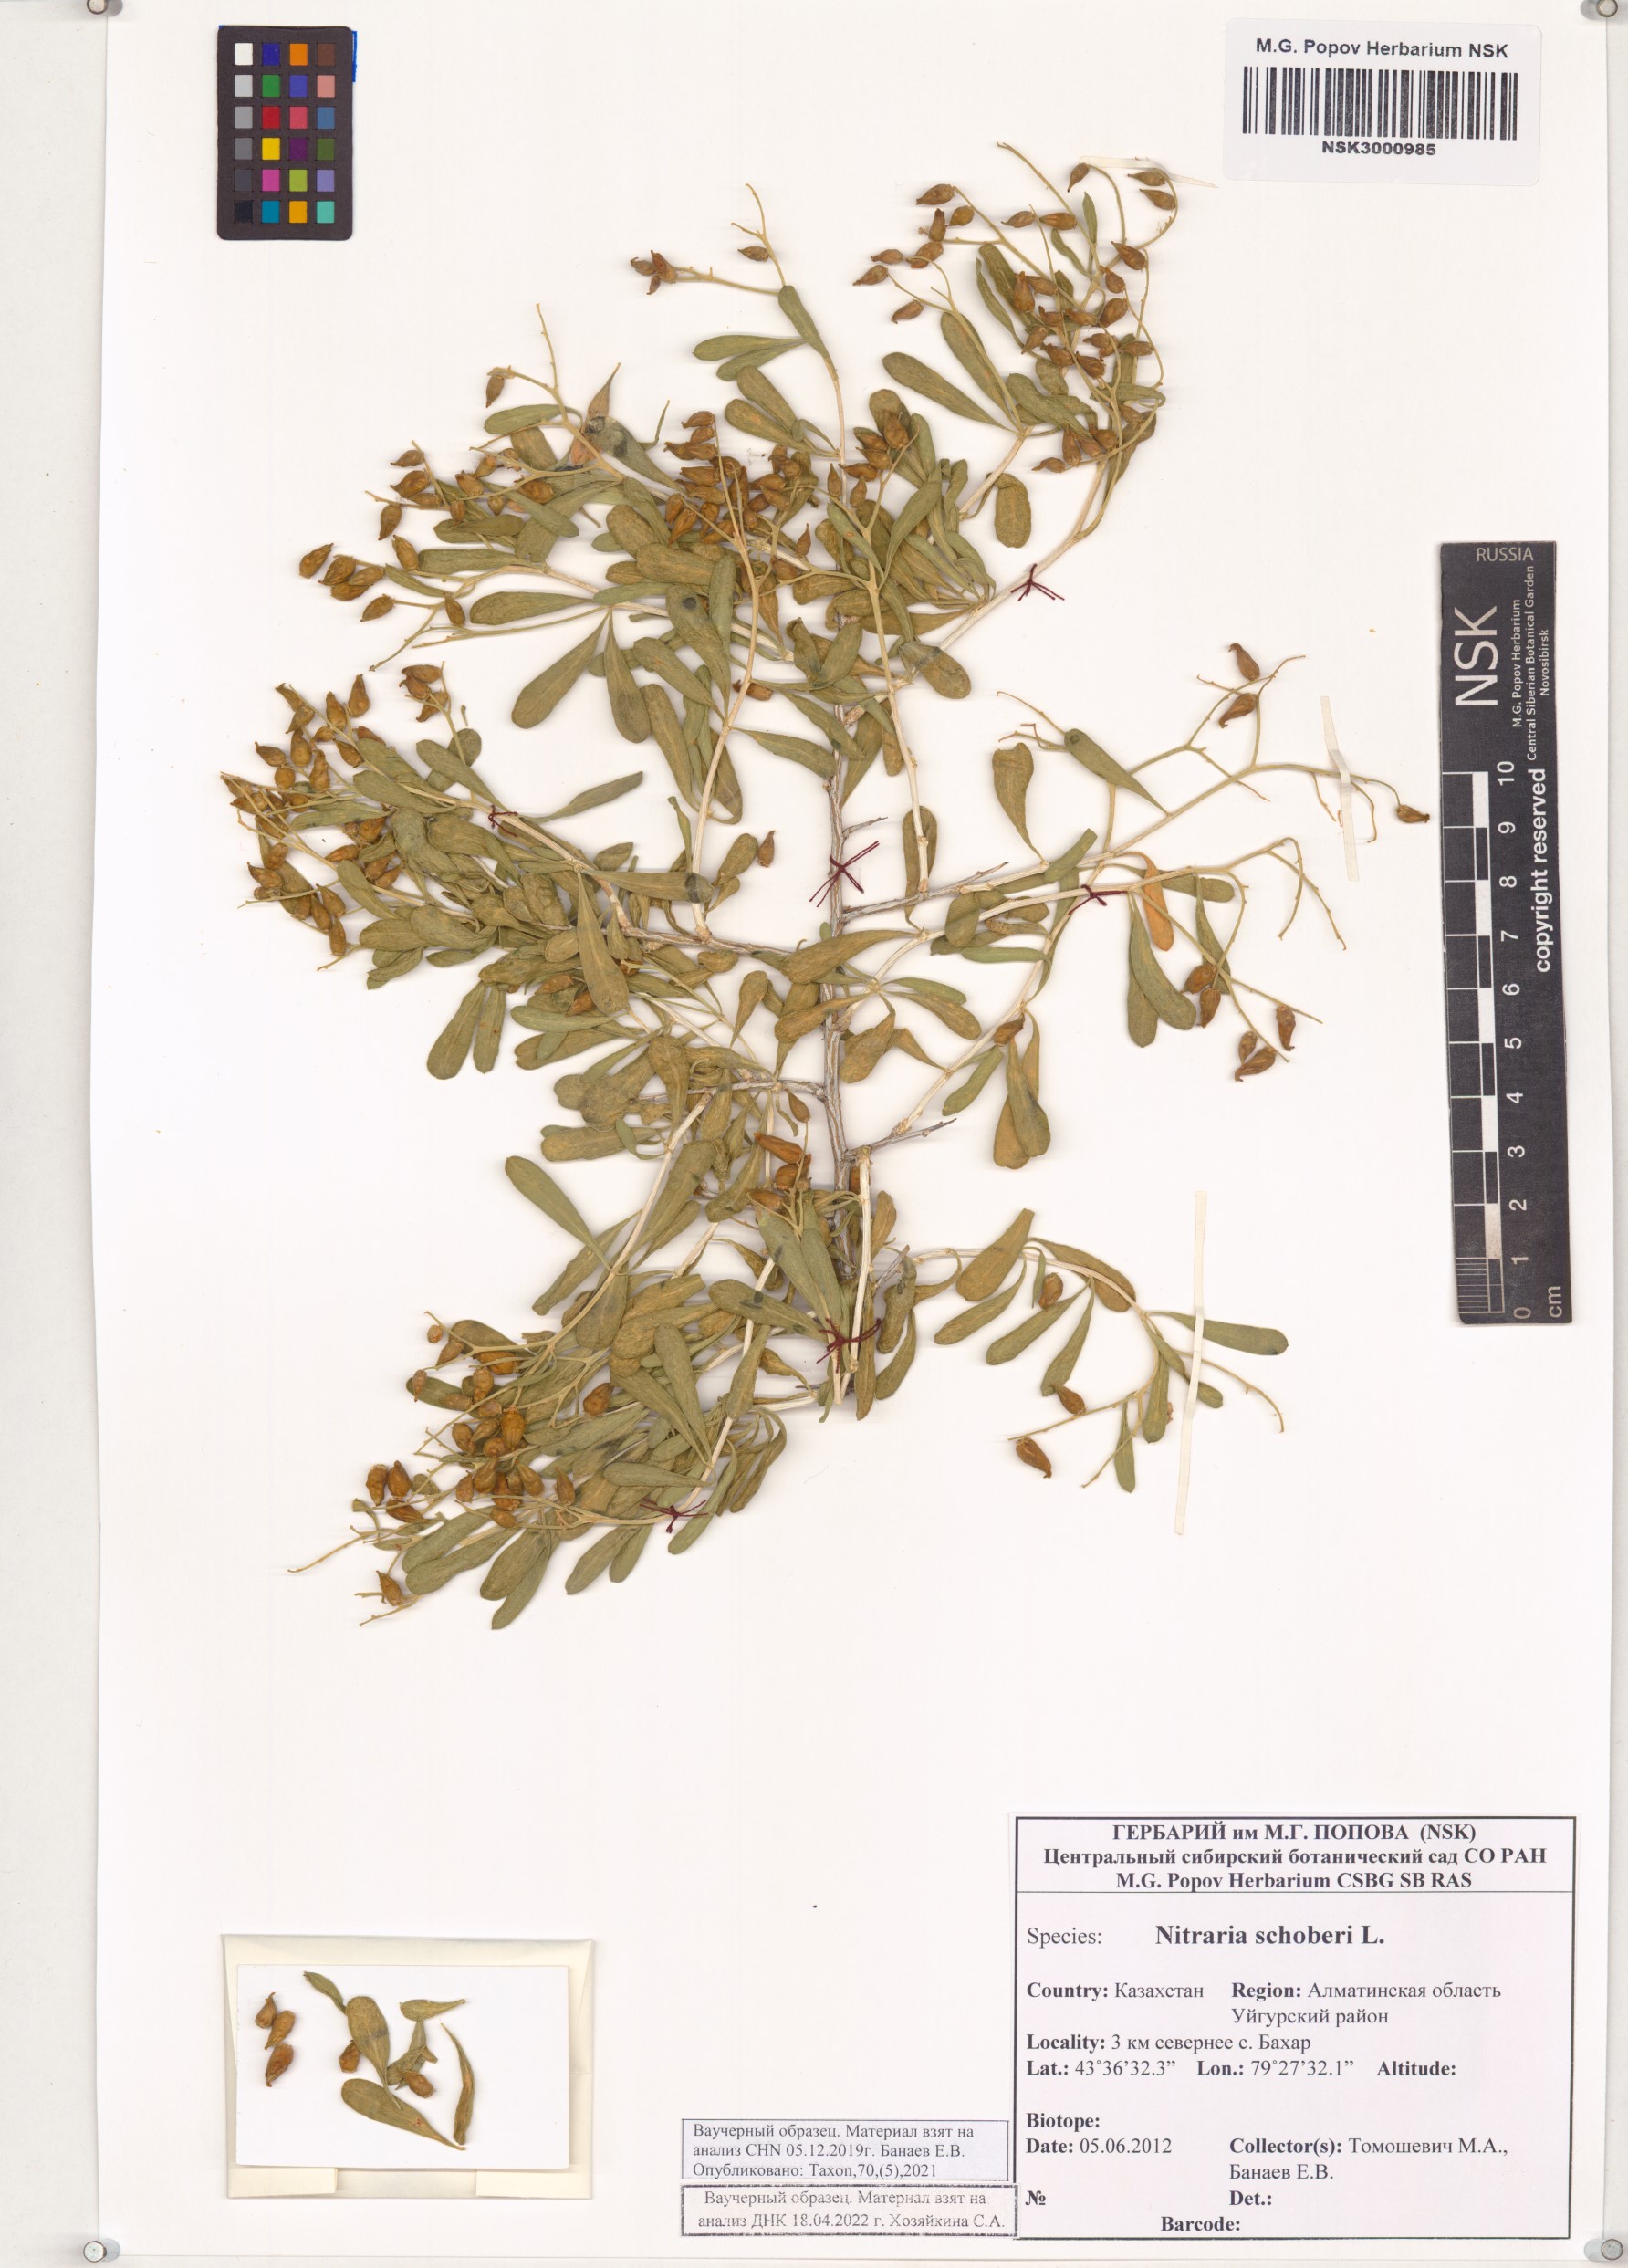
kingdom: Plantae
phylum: Tracheophyta
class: Magnoliopsida
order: Sapindales
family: Nitrariaceae
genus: Nitraria
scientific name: Nitraria schoberi
